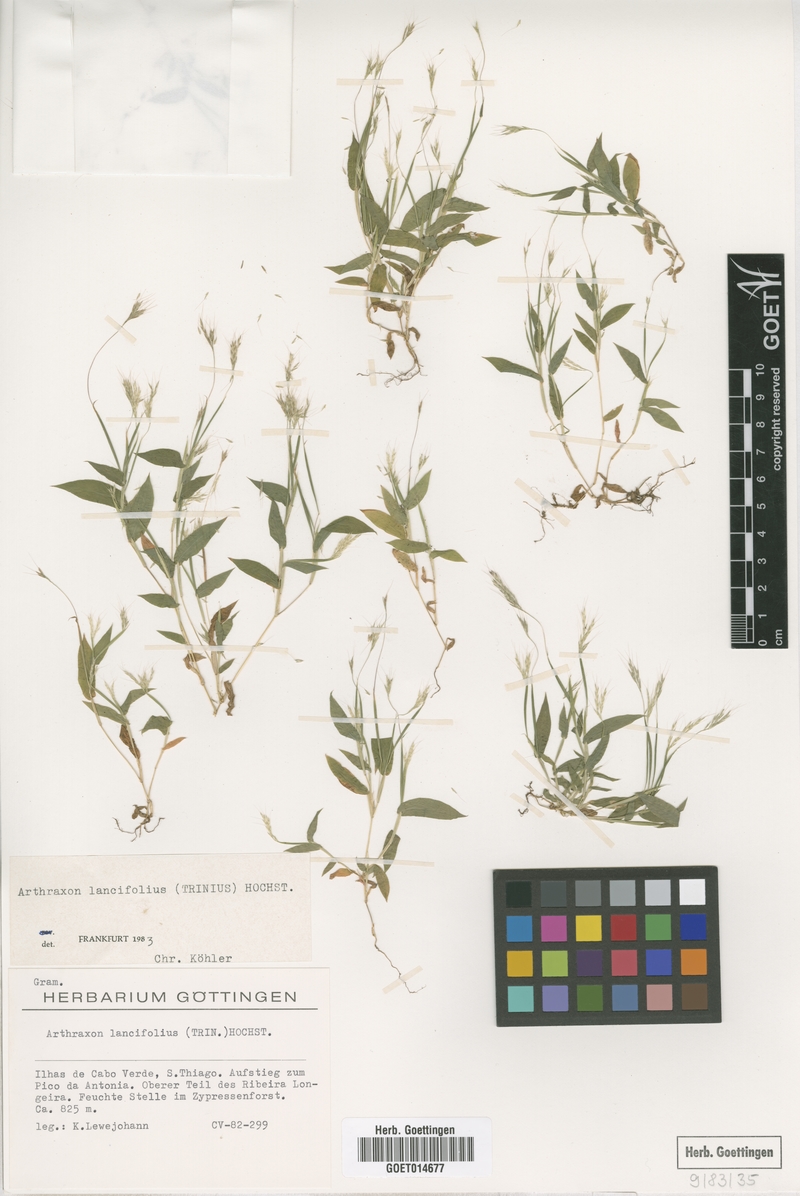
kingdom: Plantae
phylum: Tracheophyta
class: Liliopsida
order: Poales
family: Poaceae
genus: Arthraxon
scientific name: Arthraxon lancifolius
